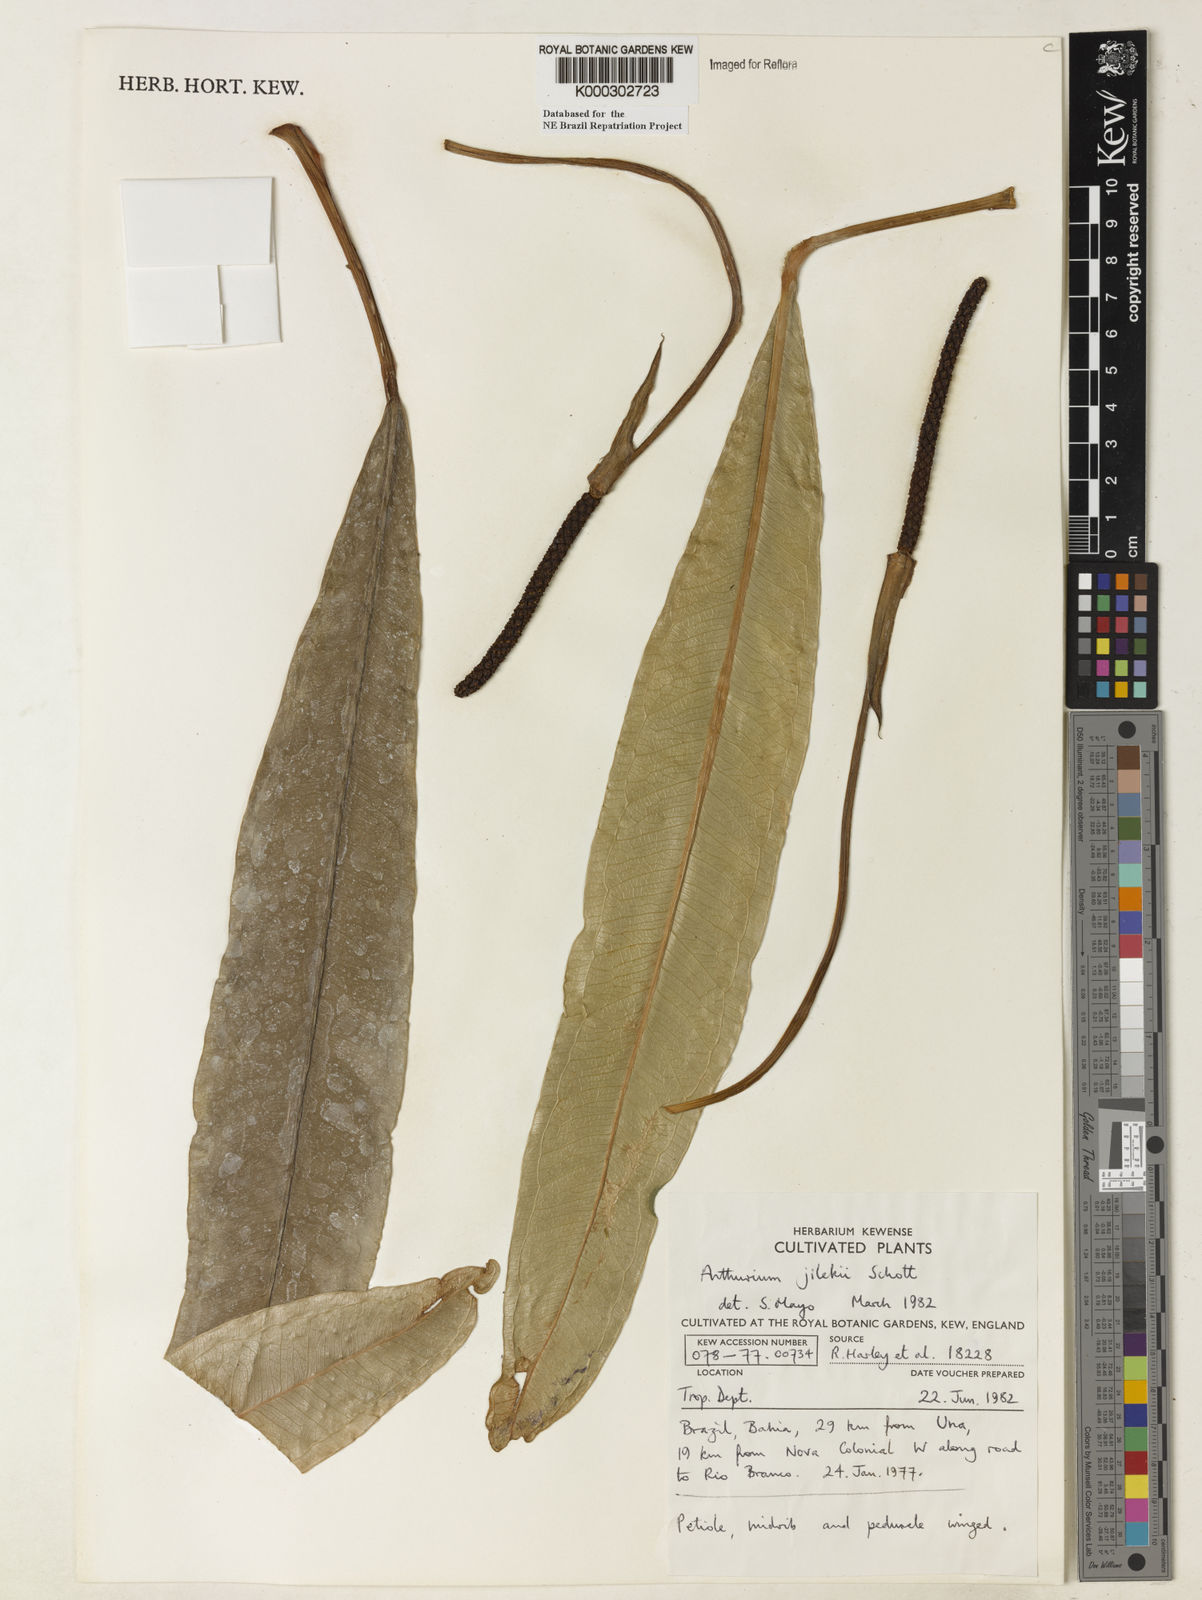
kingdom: Plantae
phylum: Tracheophyta
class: Liliopsida
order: Alismatales
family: Araceae
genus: Anthurium
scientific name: Anthurium jilekii
